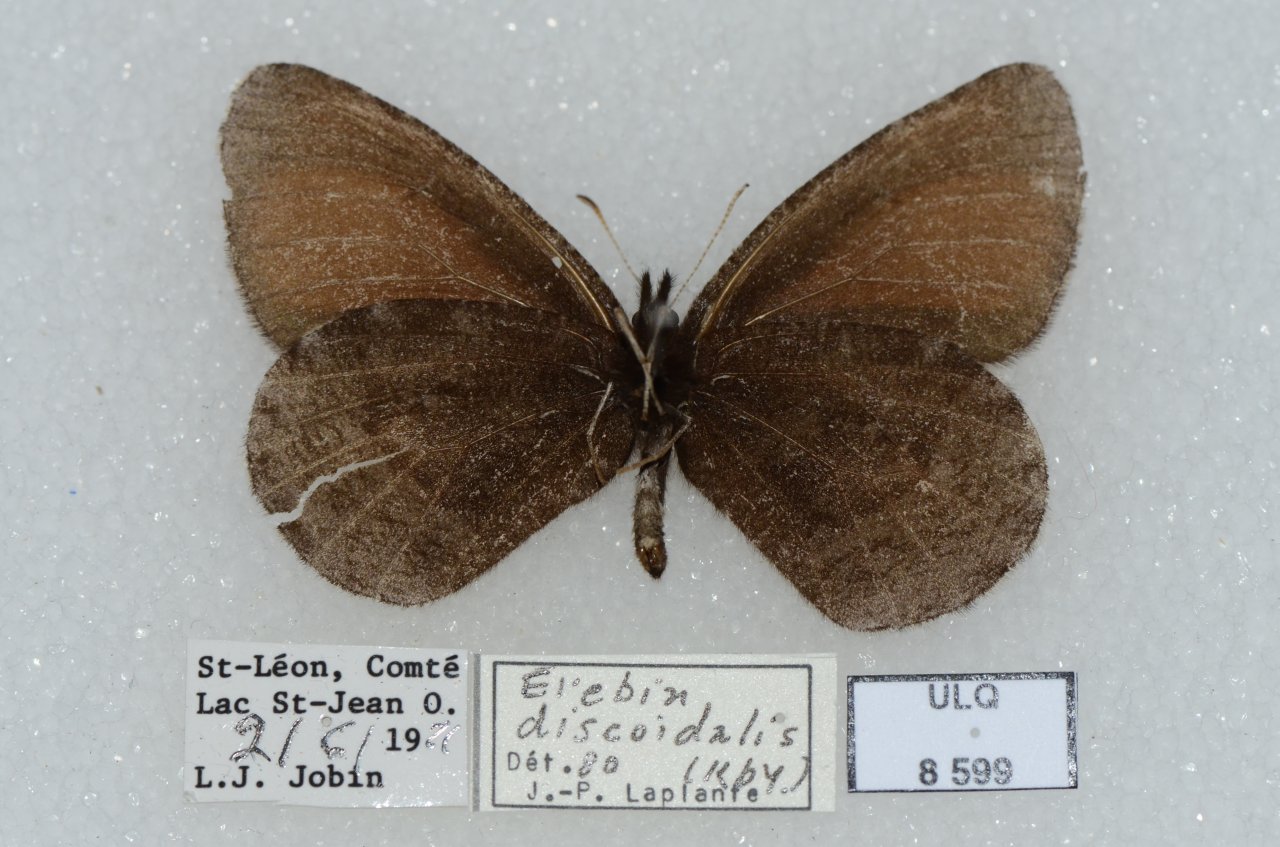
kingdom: Animalia
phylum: Arthropoda
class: Insecta
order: Lepidoptera
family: Nymphalidae
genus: Erebia
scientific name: Erebia discoidalis
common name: Red-disked Alpine
